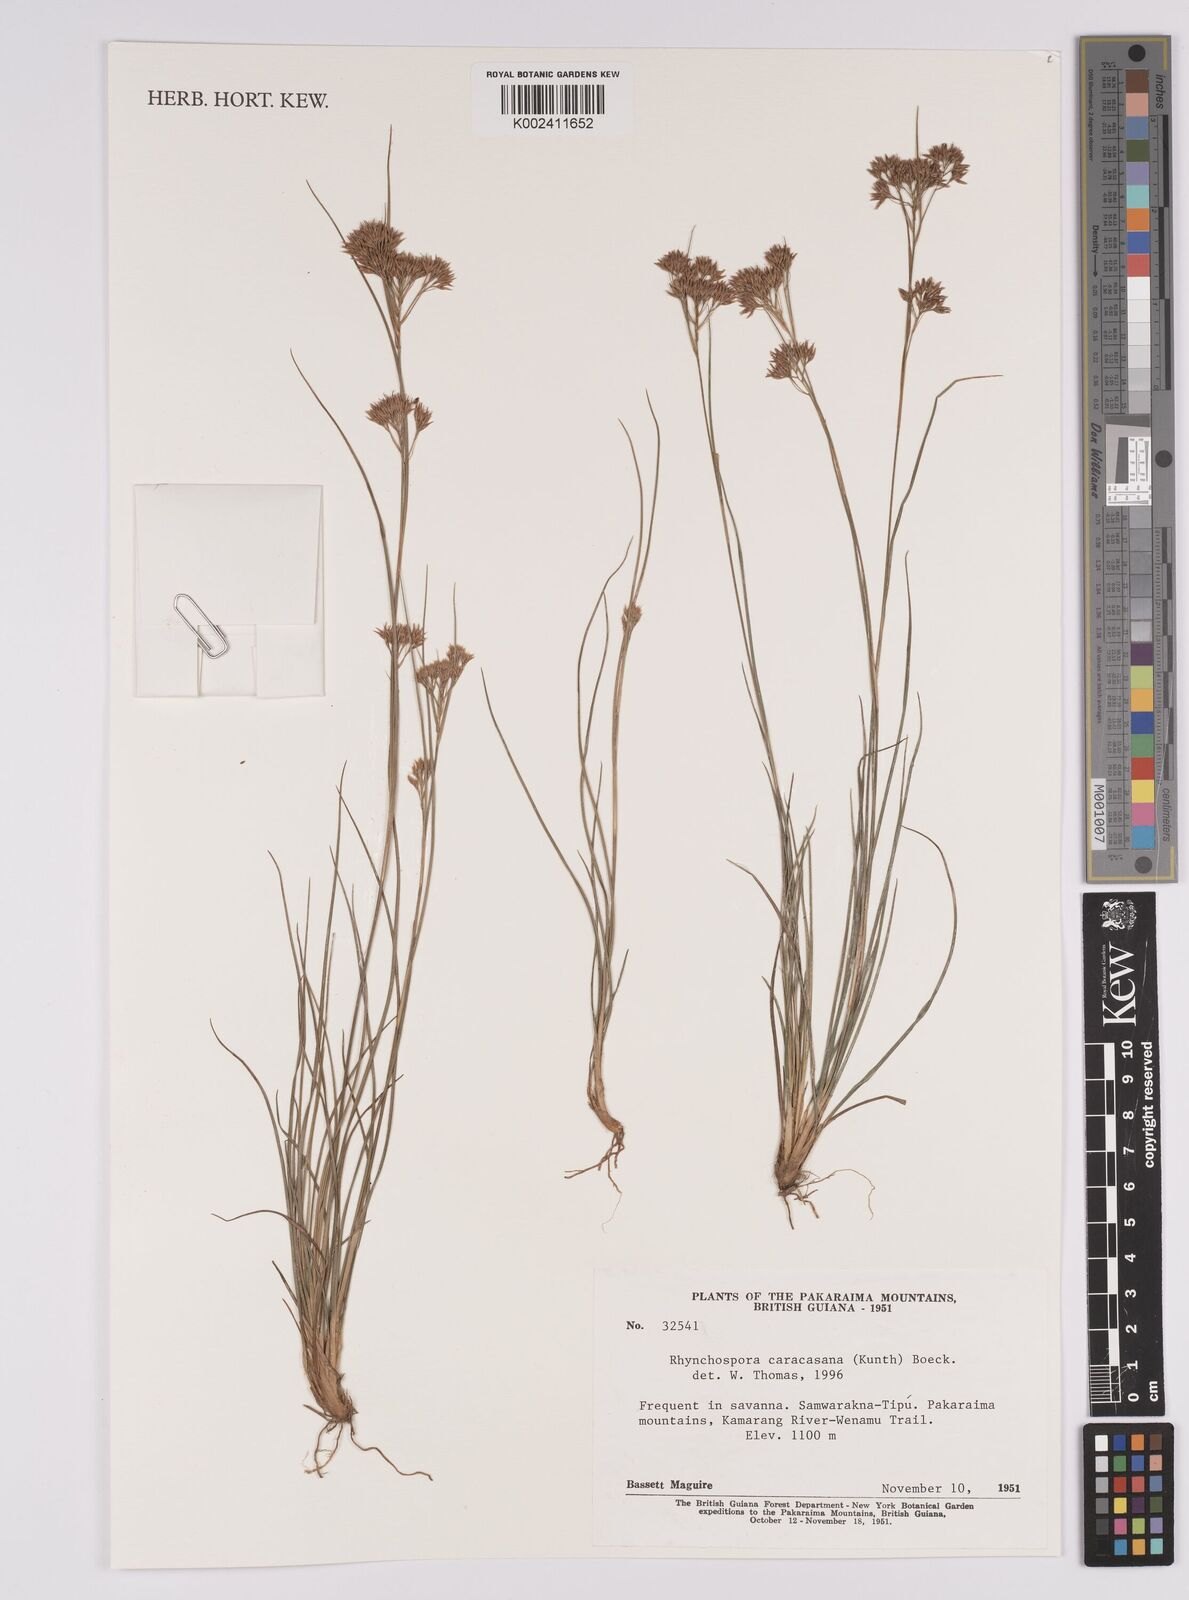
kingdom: Plantae
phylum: Tracheophyta
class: Liliopsida
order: Poales
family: Cyperaceae
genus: Rhynchospora
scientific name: Rhynchospora caracasana
